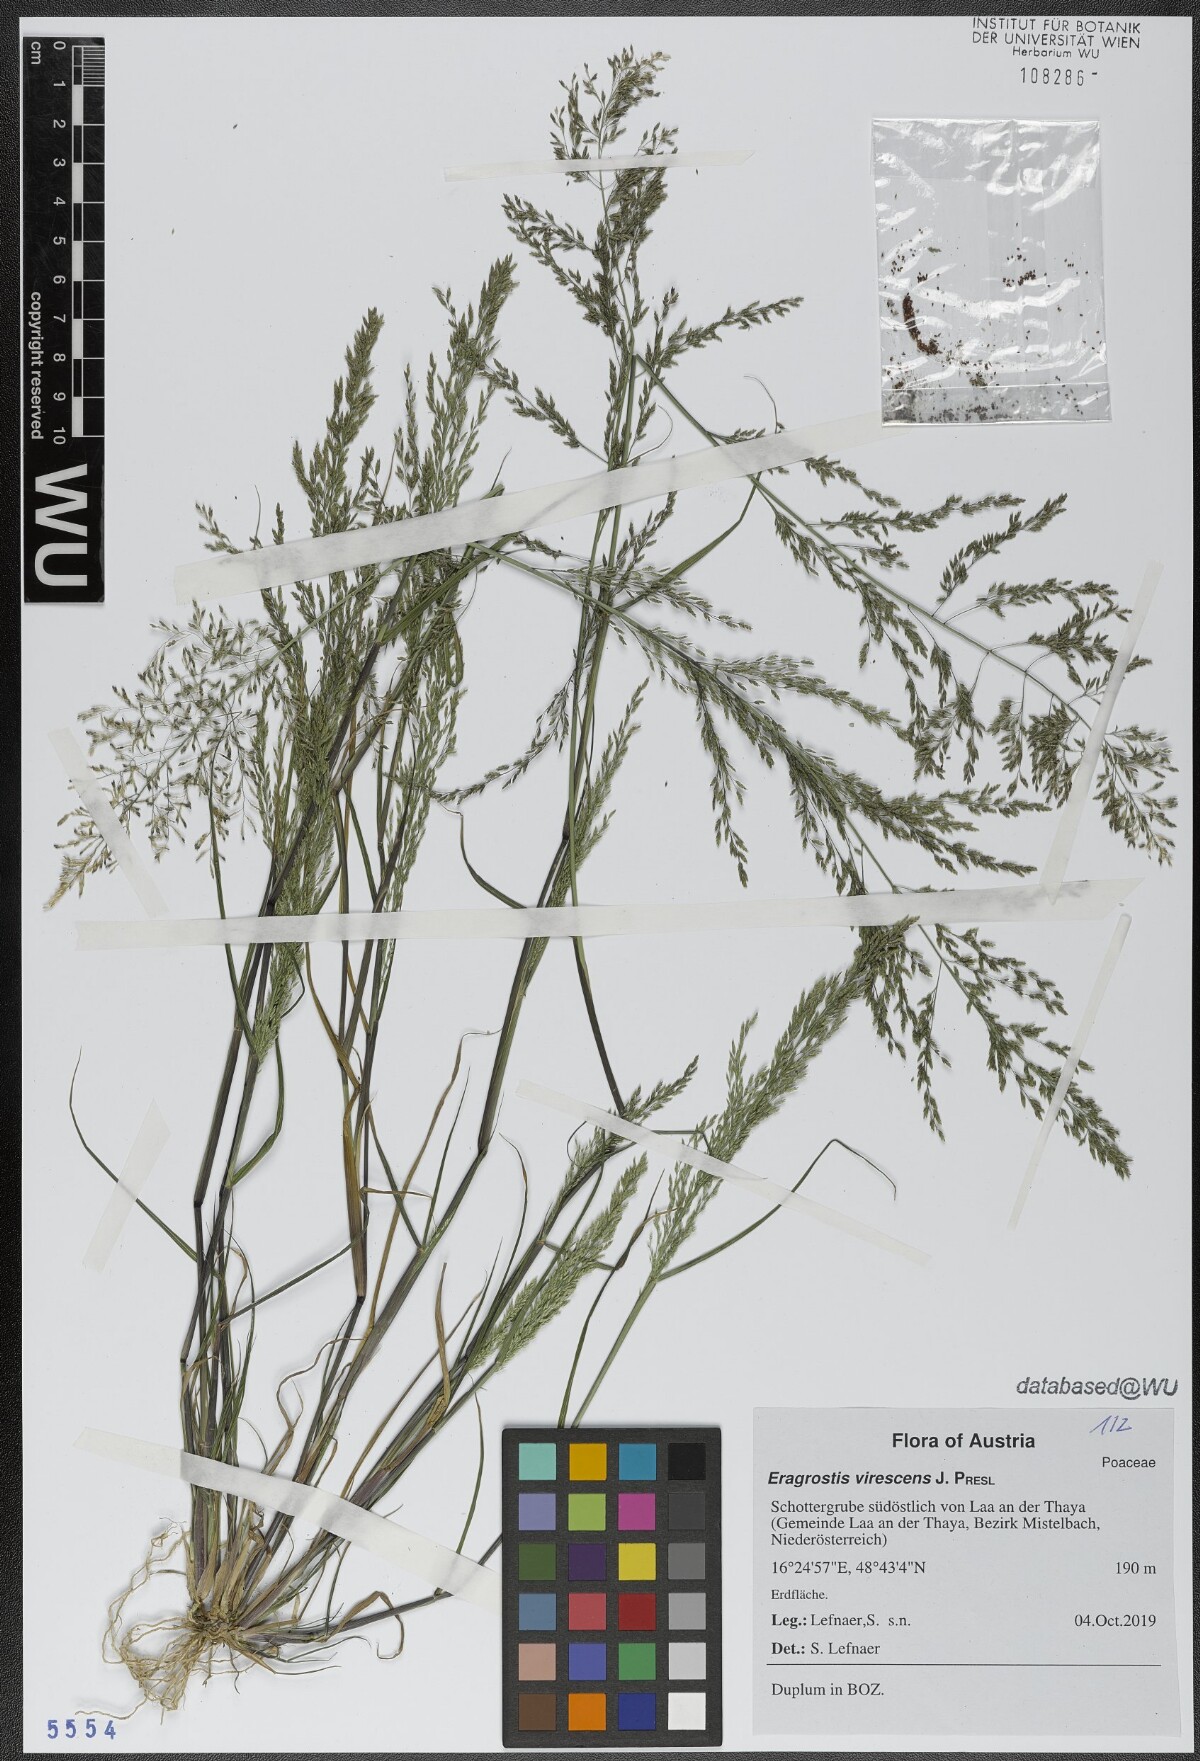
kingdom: Plantae
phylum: Tracheophyta
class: Liliopsida
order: Poales
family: Poaceae
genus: Eragrostis
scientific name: Eragrostis virescens
